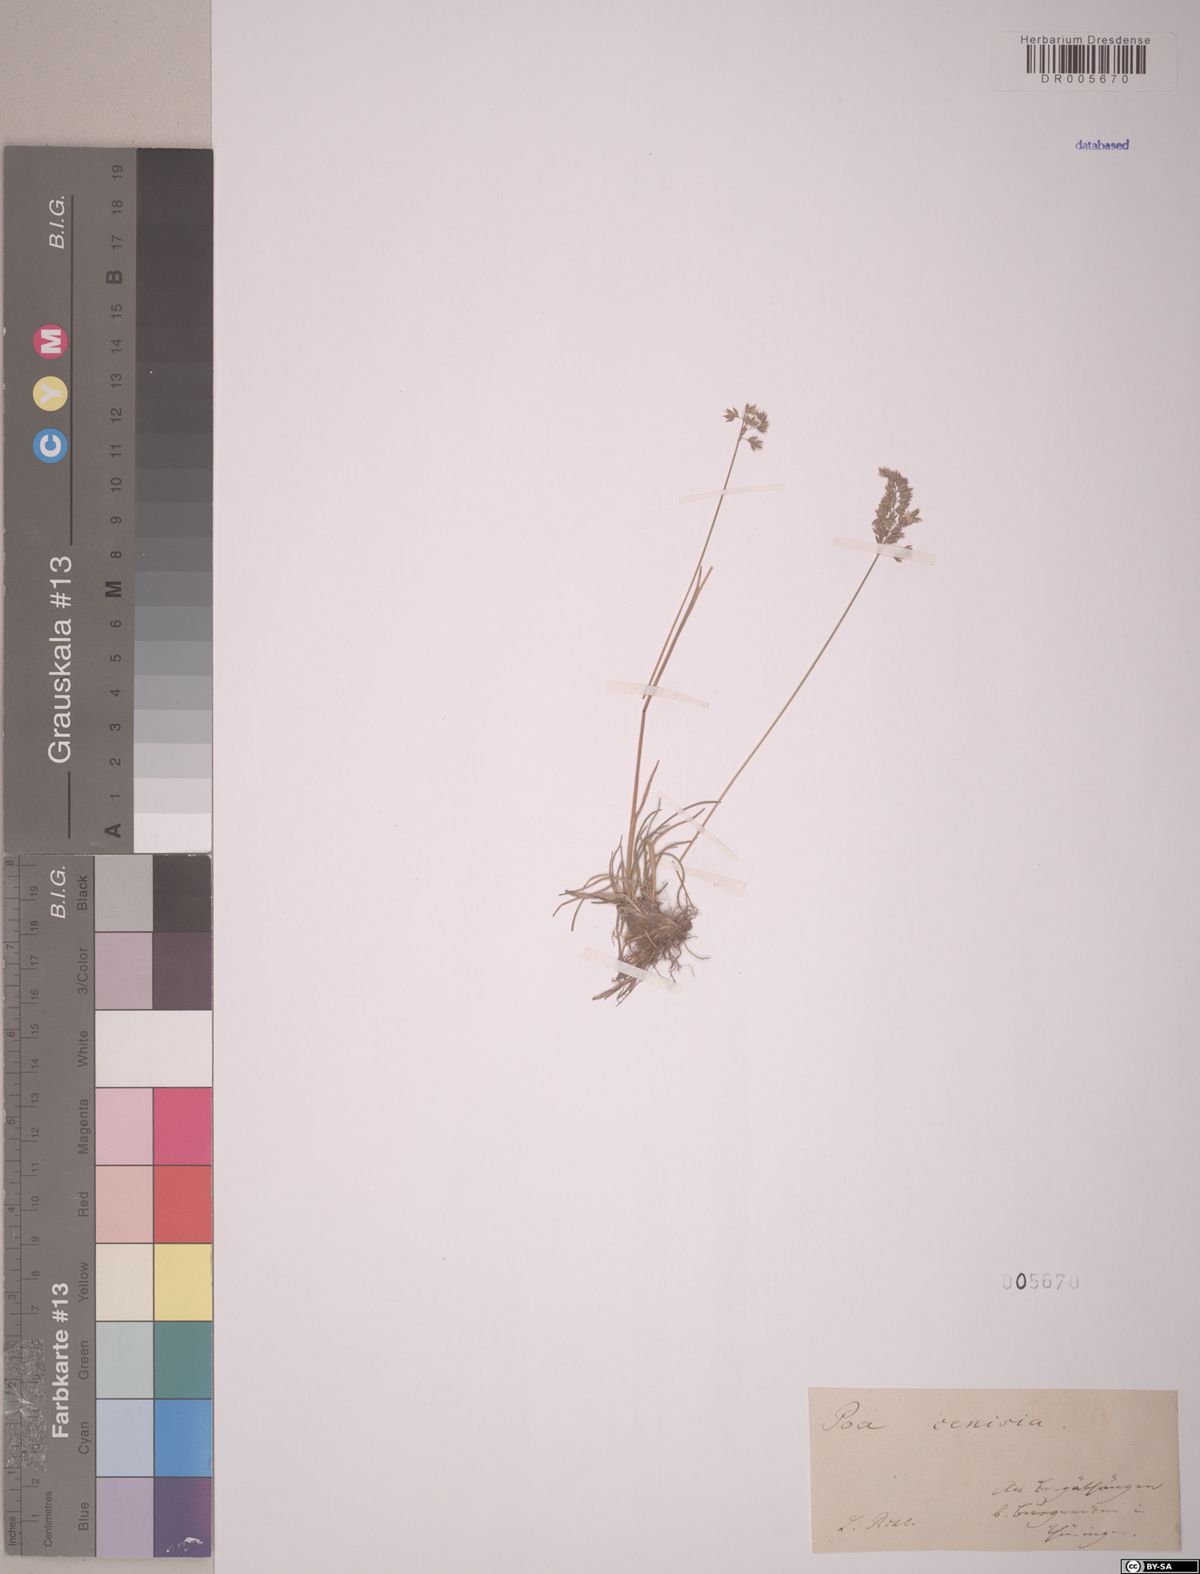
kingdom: Plantae
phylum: Tracheophyta
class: Liliopsida
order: Poales
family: Poaceae
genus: Poa
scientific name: Poa cenisia
